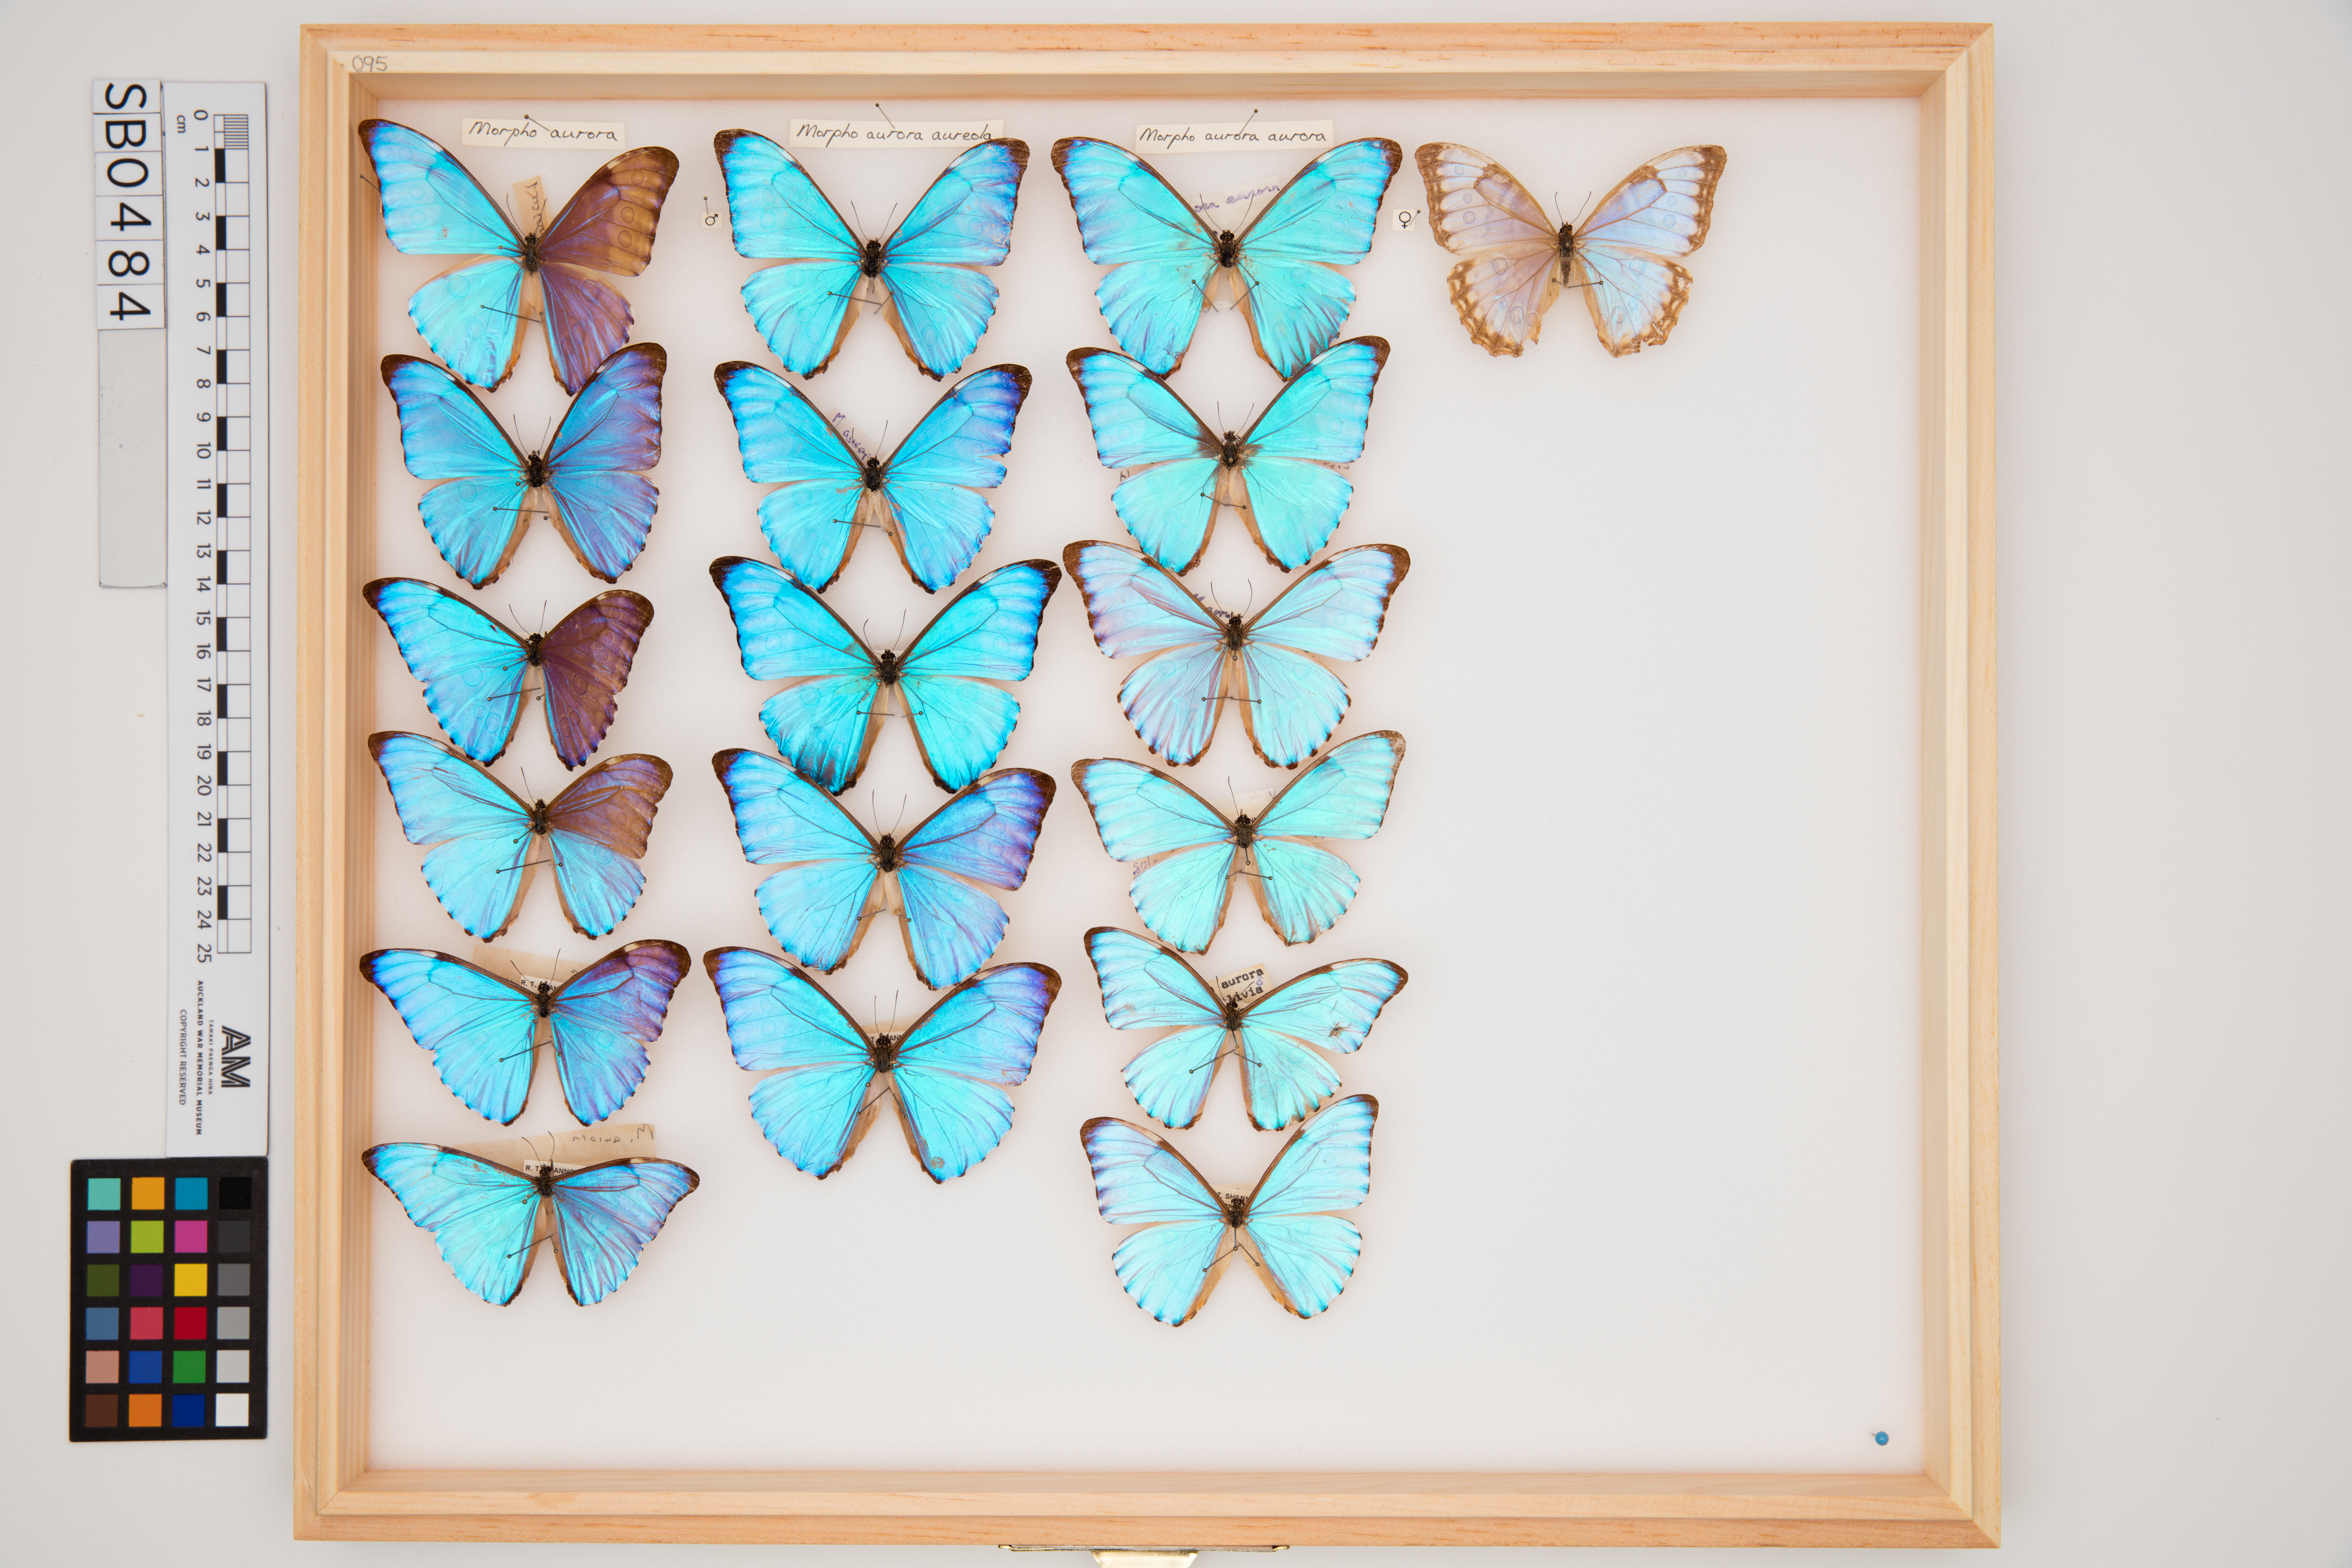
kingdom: Animalia
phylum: Arthropoda
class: Insecta
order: Lepidoptera
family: Nymphalidae
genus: Morpho
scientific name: Morpho aurora
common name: Aurora morpho
